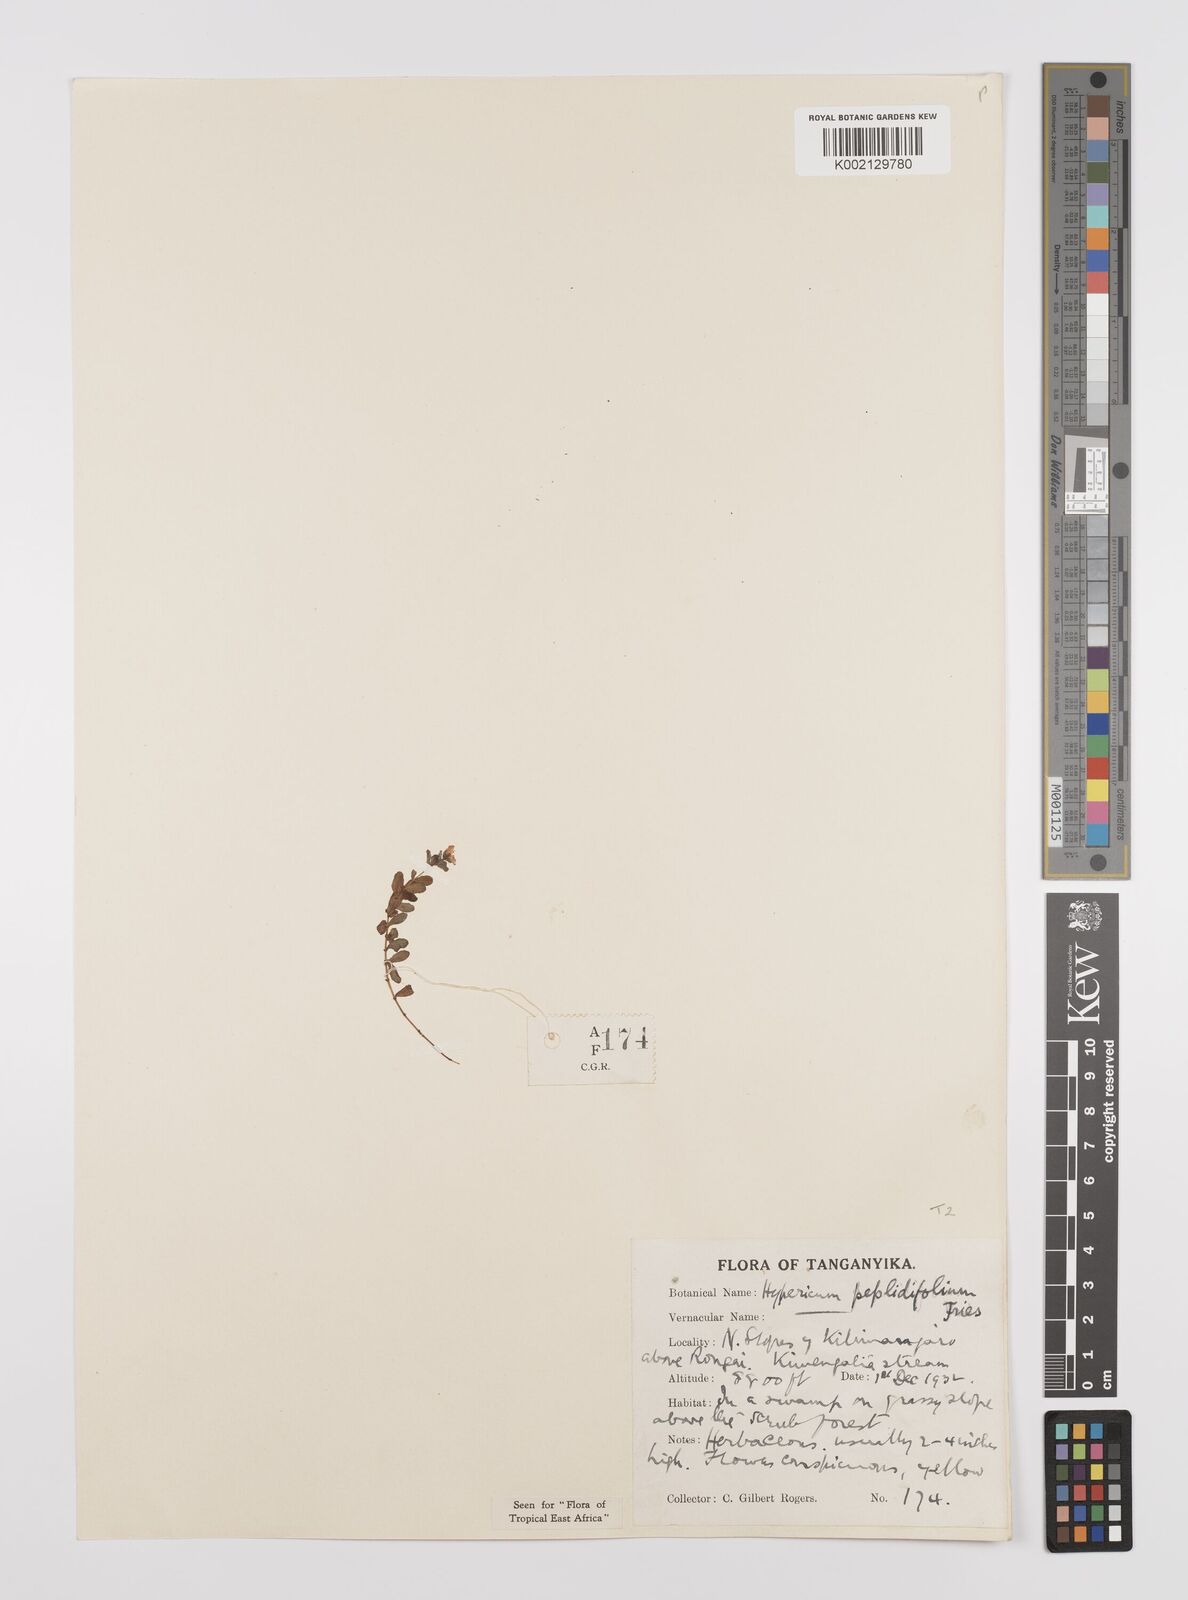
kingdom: Plantae
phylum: Tracheophyta
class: Magnoliopsida
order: Malpighiales
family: Hypericaceae
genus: Hypericum
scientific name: Hypericum peplidifolium
